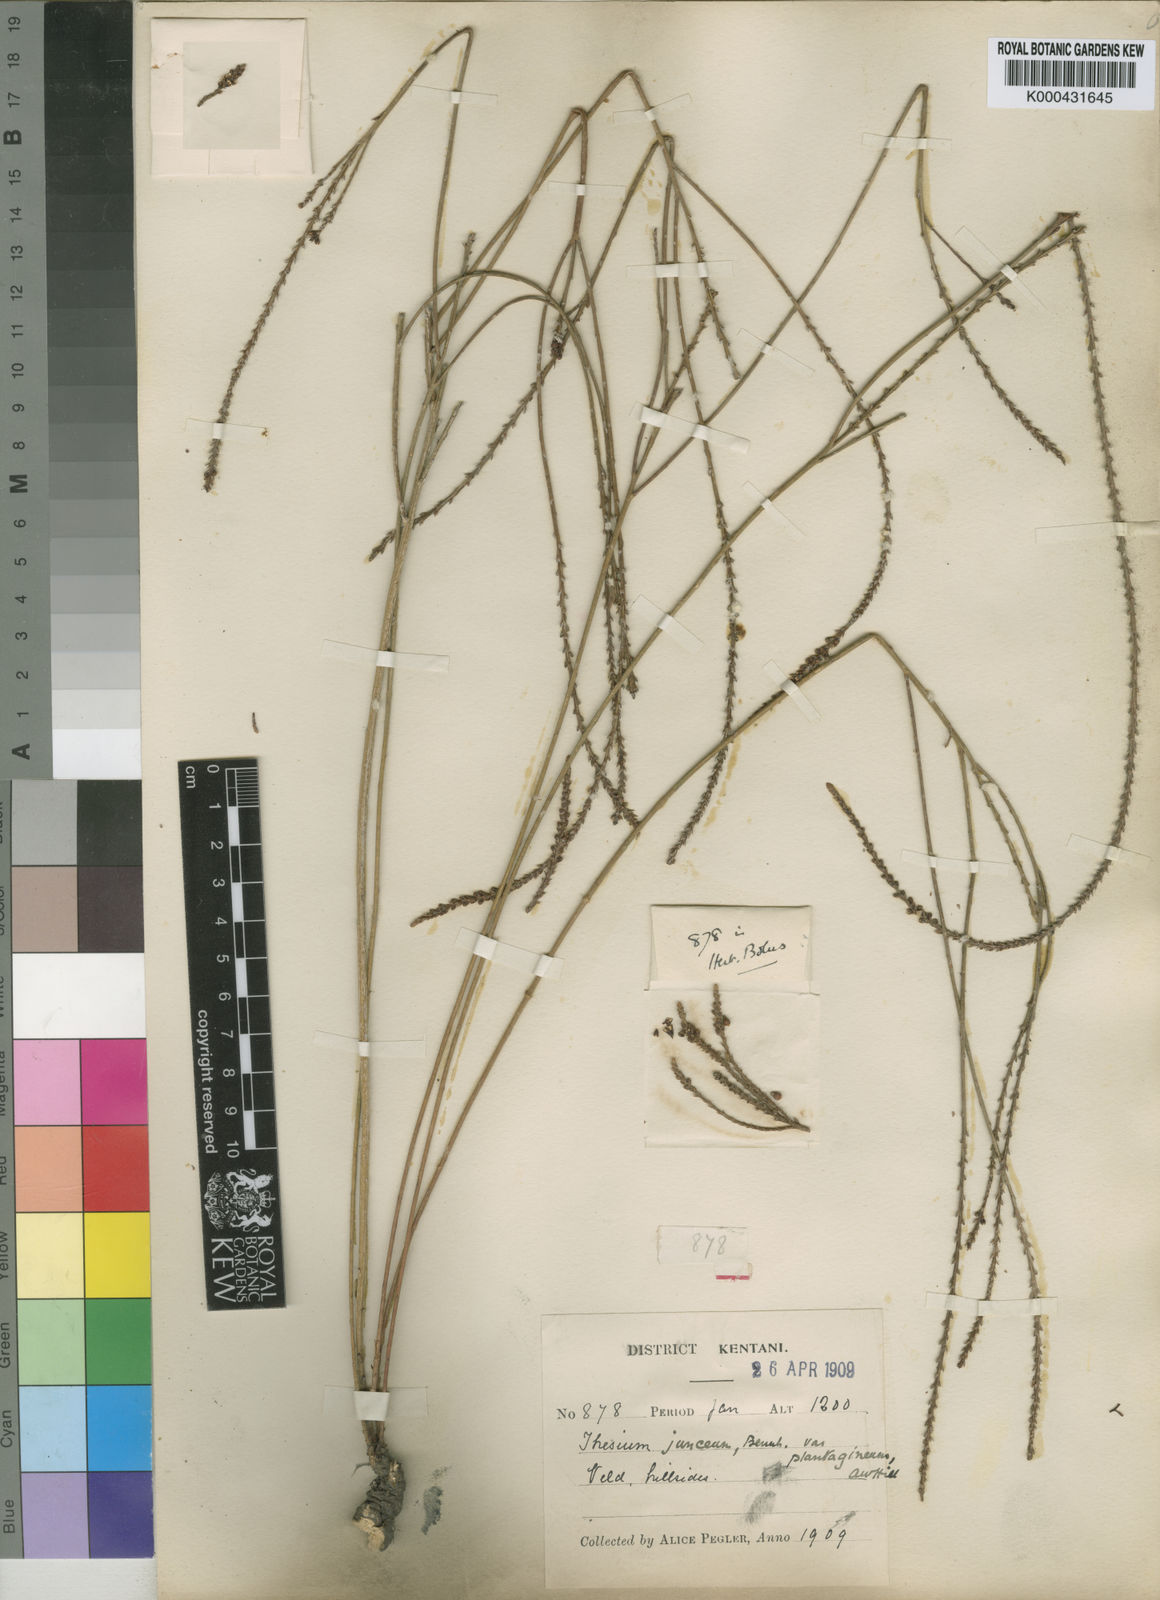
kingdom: Plantae
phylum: Tracheophyta
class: Magnoliopsida
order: Santalales
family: Thesiaceae
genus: Thesium
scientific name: Thesium
